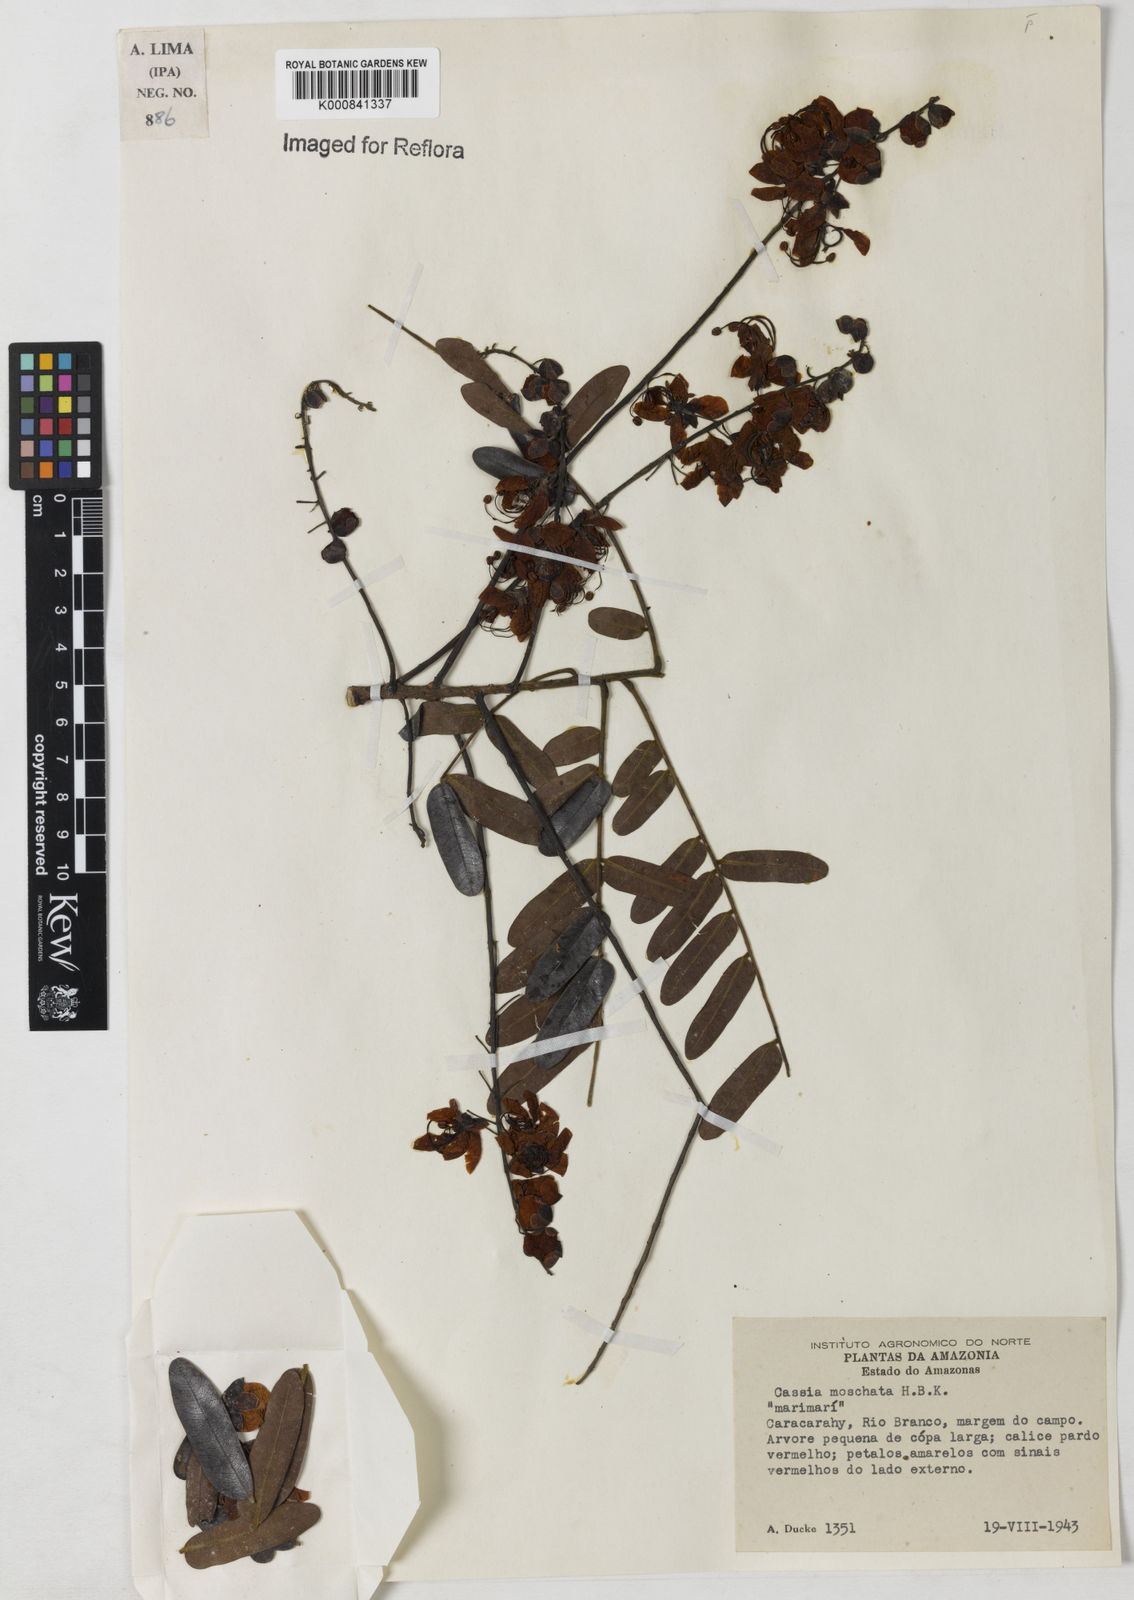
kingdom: Plantae
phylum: Tracheophyta
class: Magnoliopsida
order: Fabales
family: Fabaceae
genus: Cassia
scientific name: Cassia moschata
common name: Bronze shower tree
